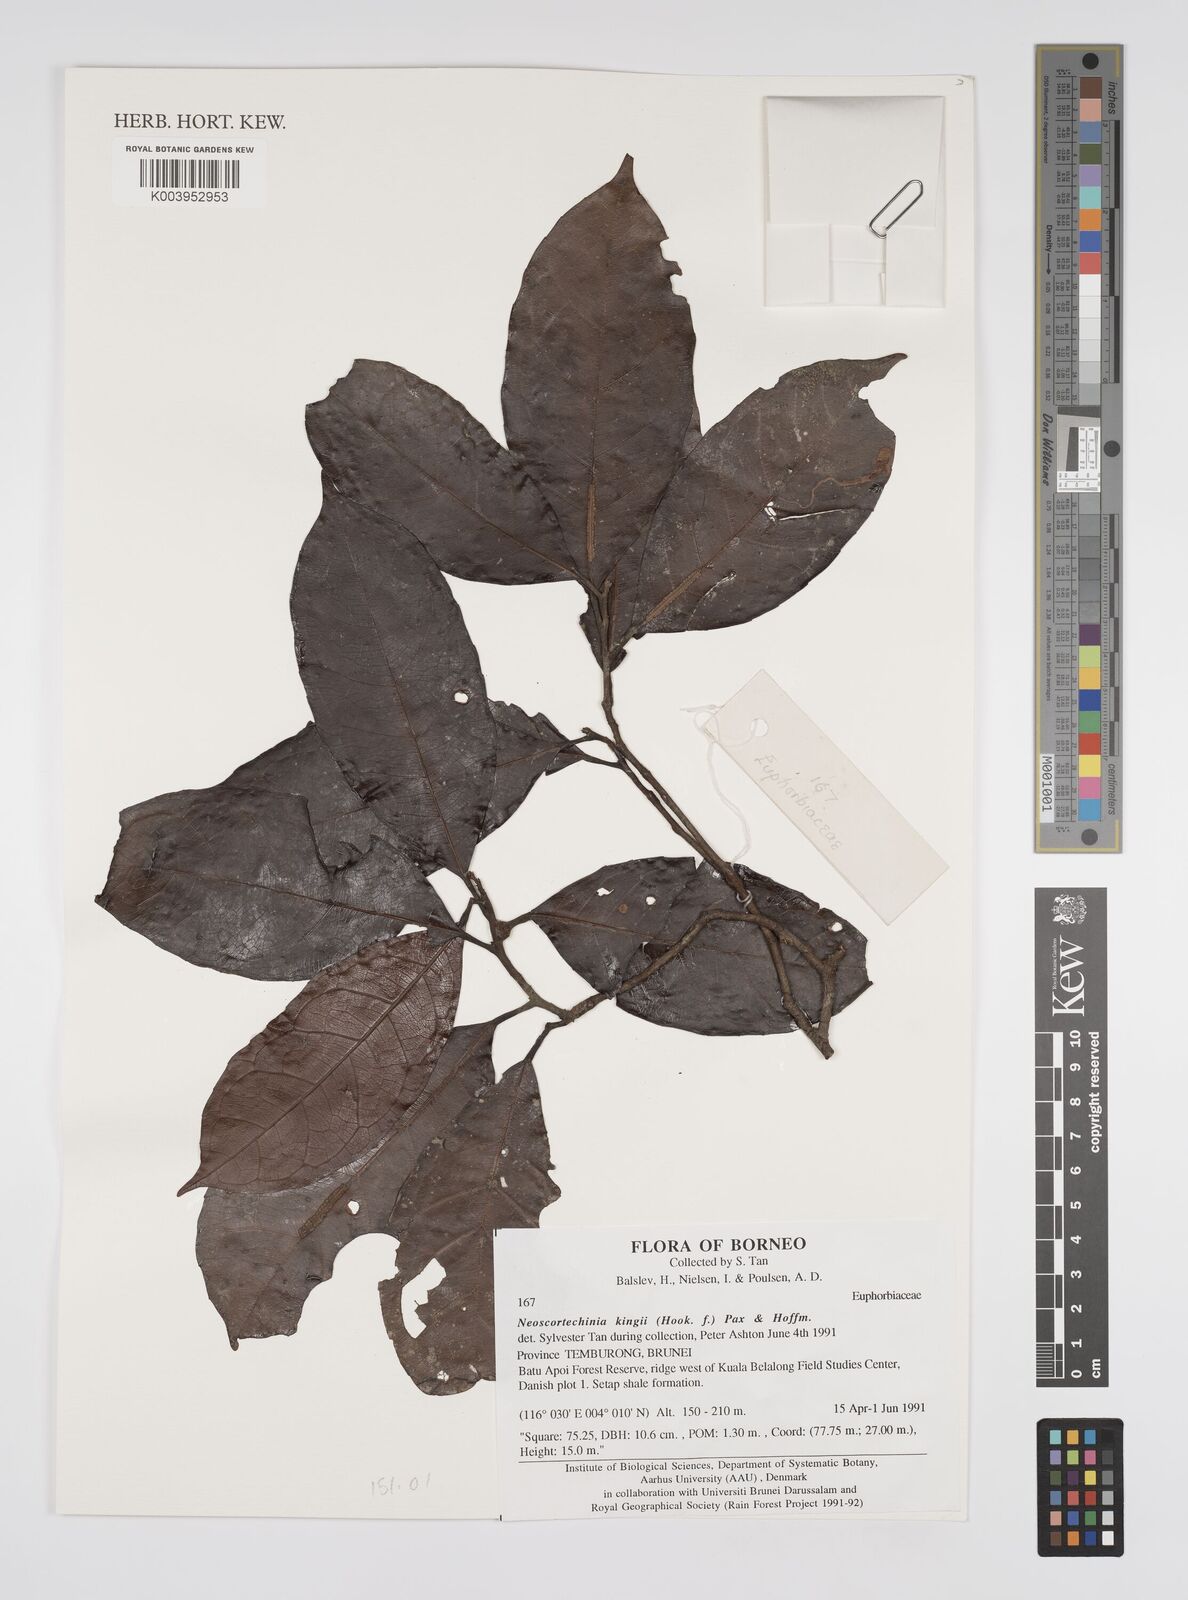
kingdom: Plantae
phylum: Tracheophyta
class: Magnoliopsida
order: Malpighiales
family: Euphorbiaceae
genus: Neoscortechinia
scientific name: Neoscortechinia
